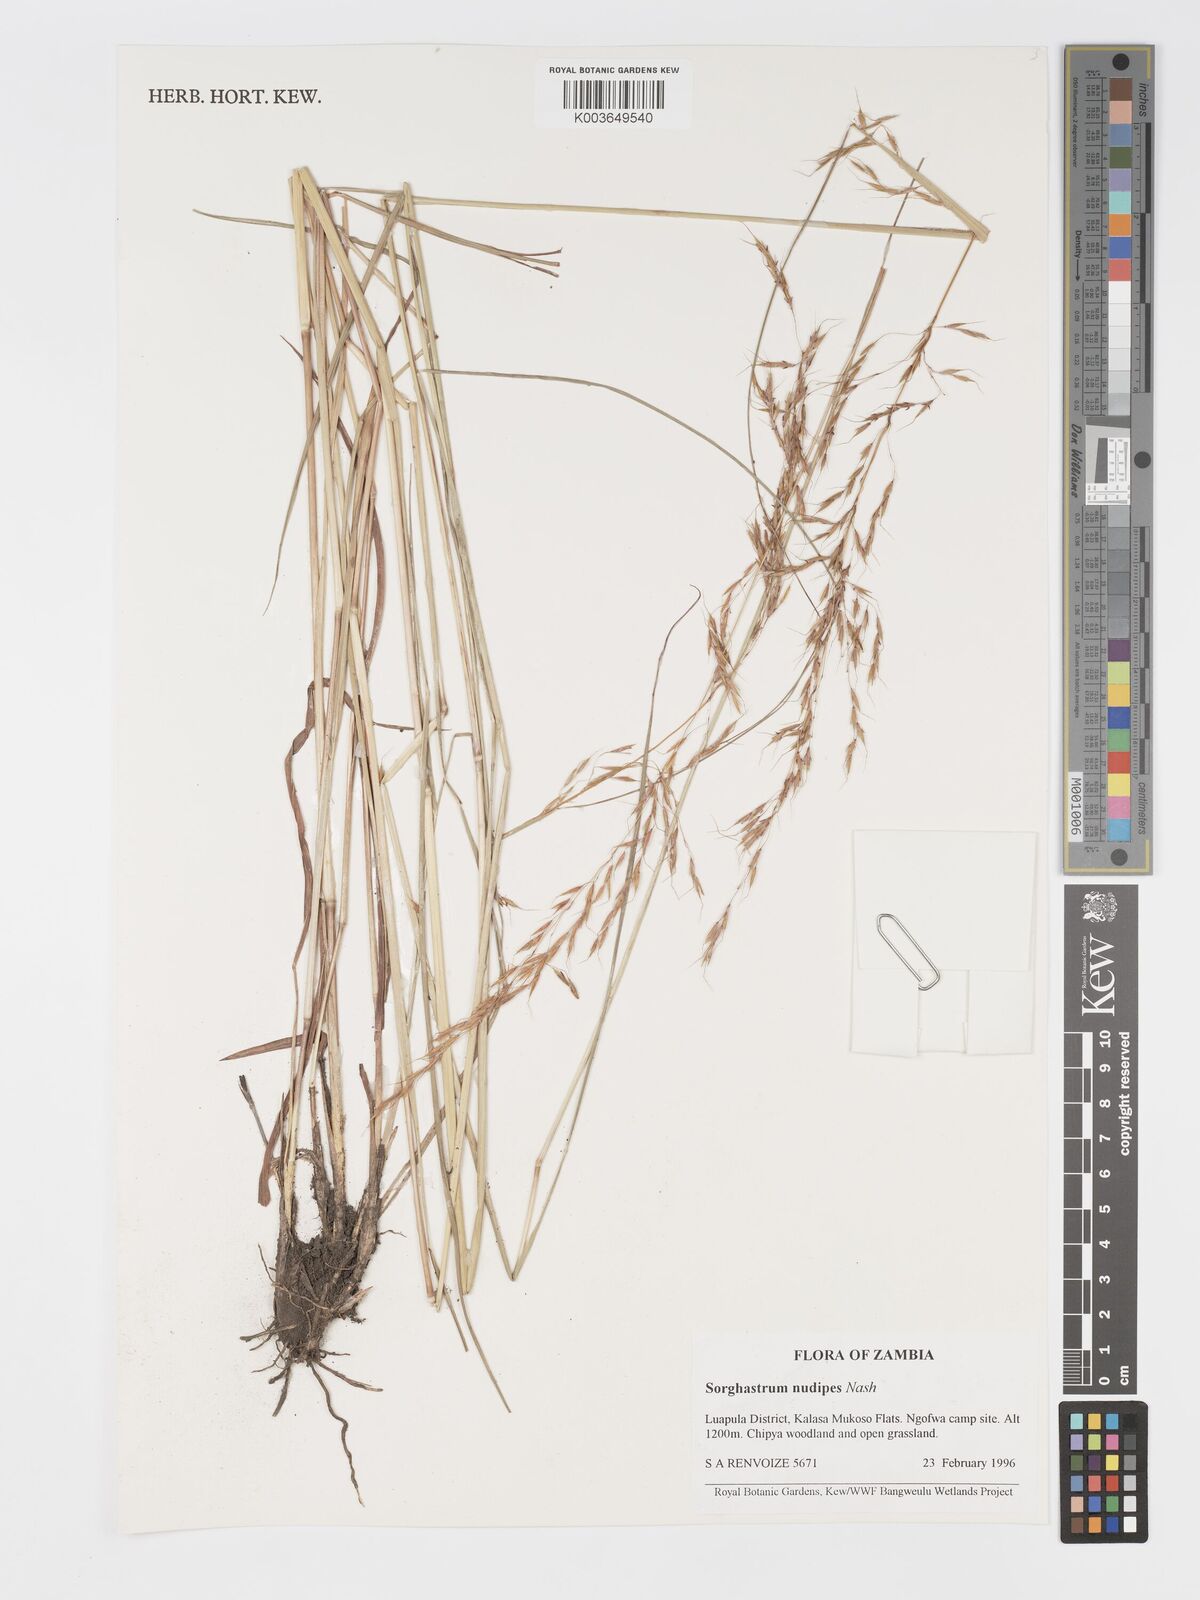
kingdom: Plantae
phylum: Tracheophyta
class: Liliopsida
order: Poales
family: Poaceae
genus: Sorghastrum
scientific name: Sorghastrum nudipes
